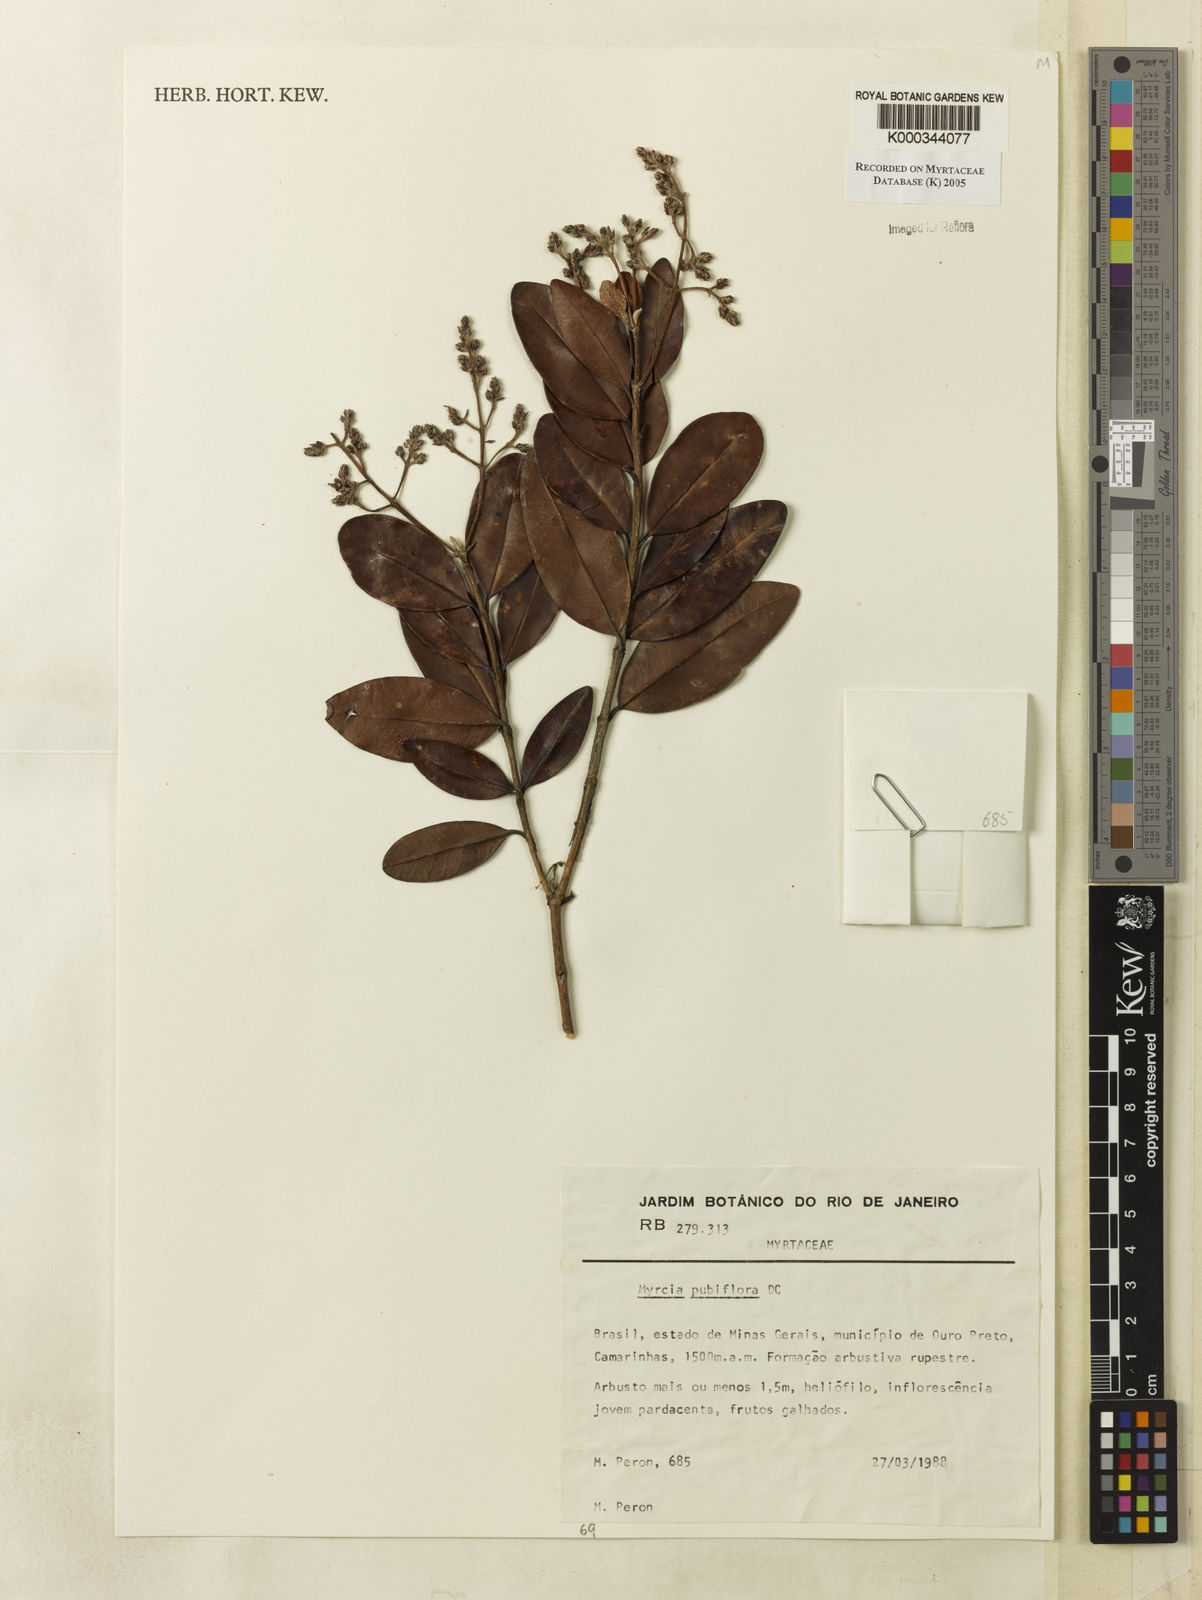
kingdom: Plantae
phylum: Tracheophyta
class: Magnoliopsida
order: Myrtales
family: Myrtaceae
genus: Myrcia
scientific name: Myrcia pubiflora
